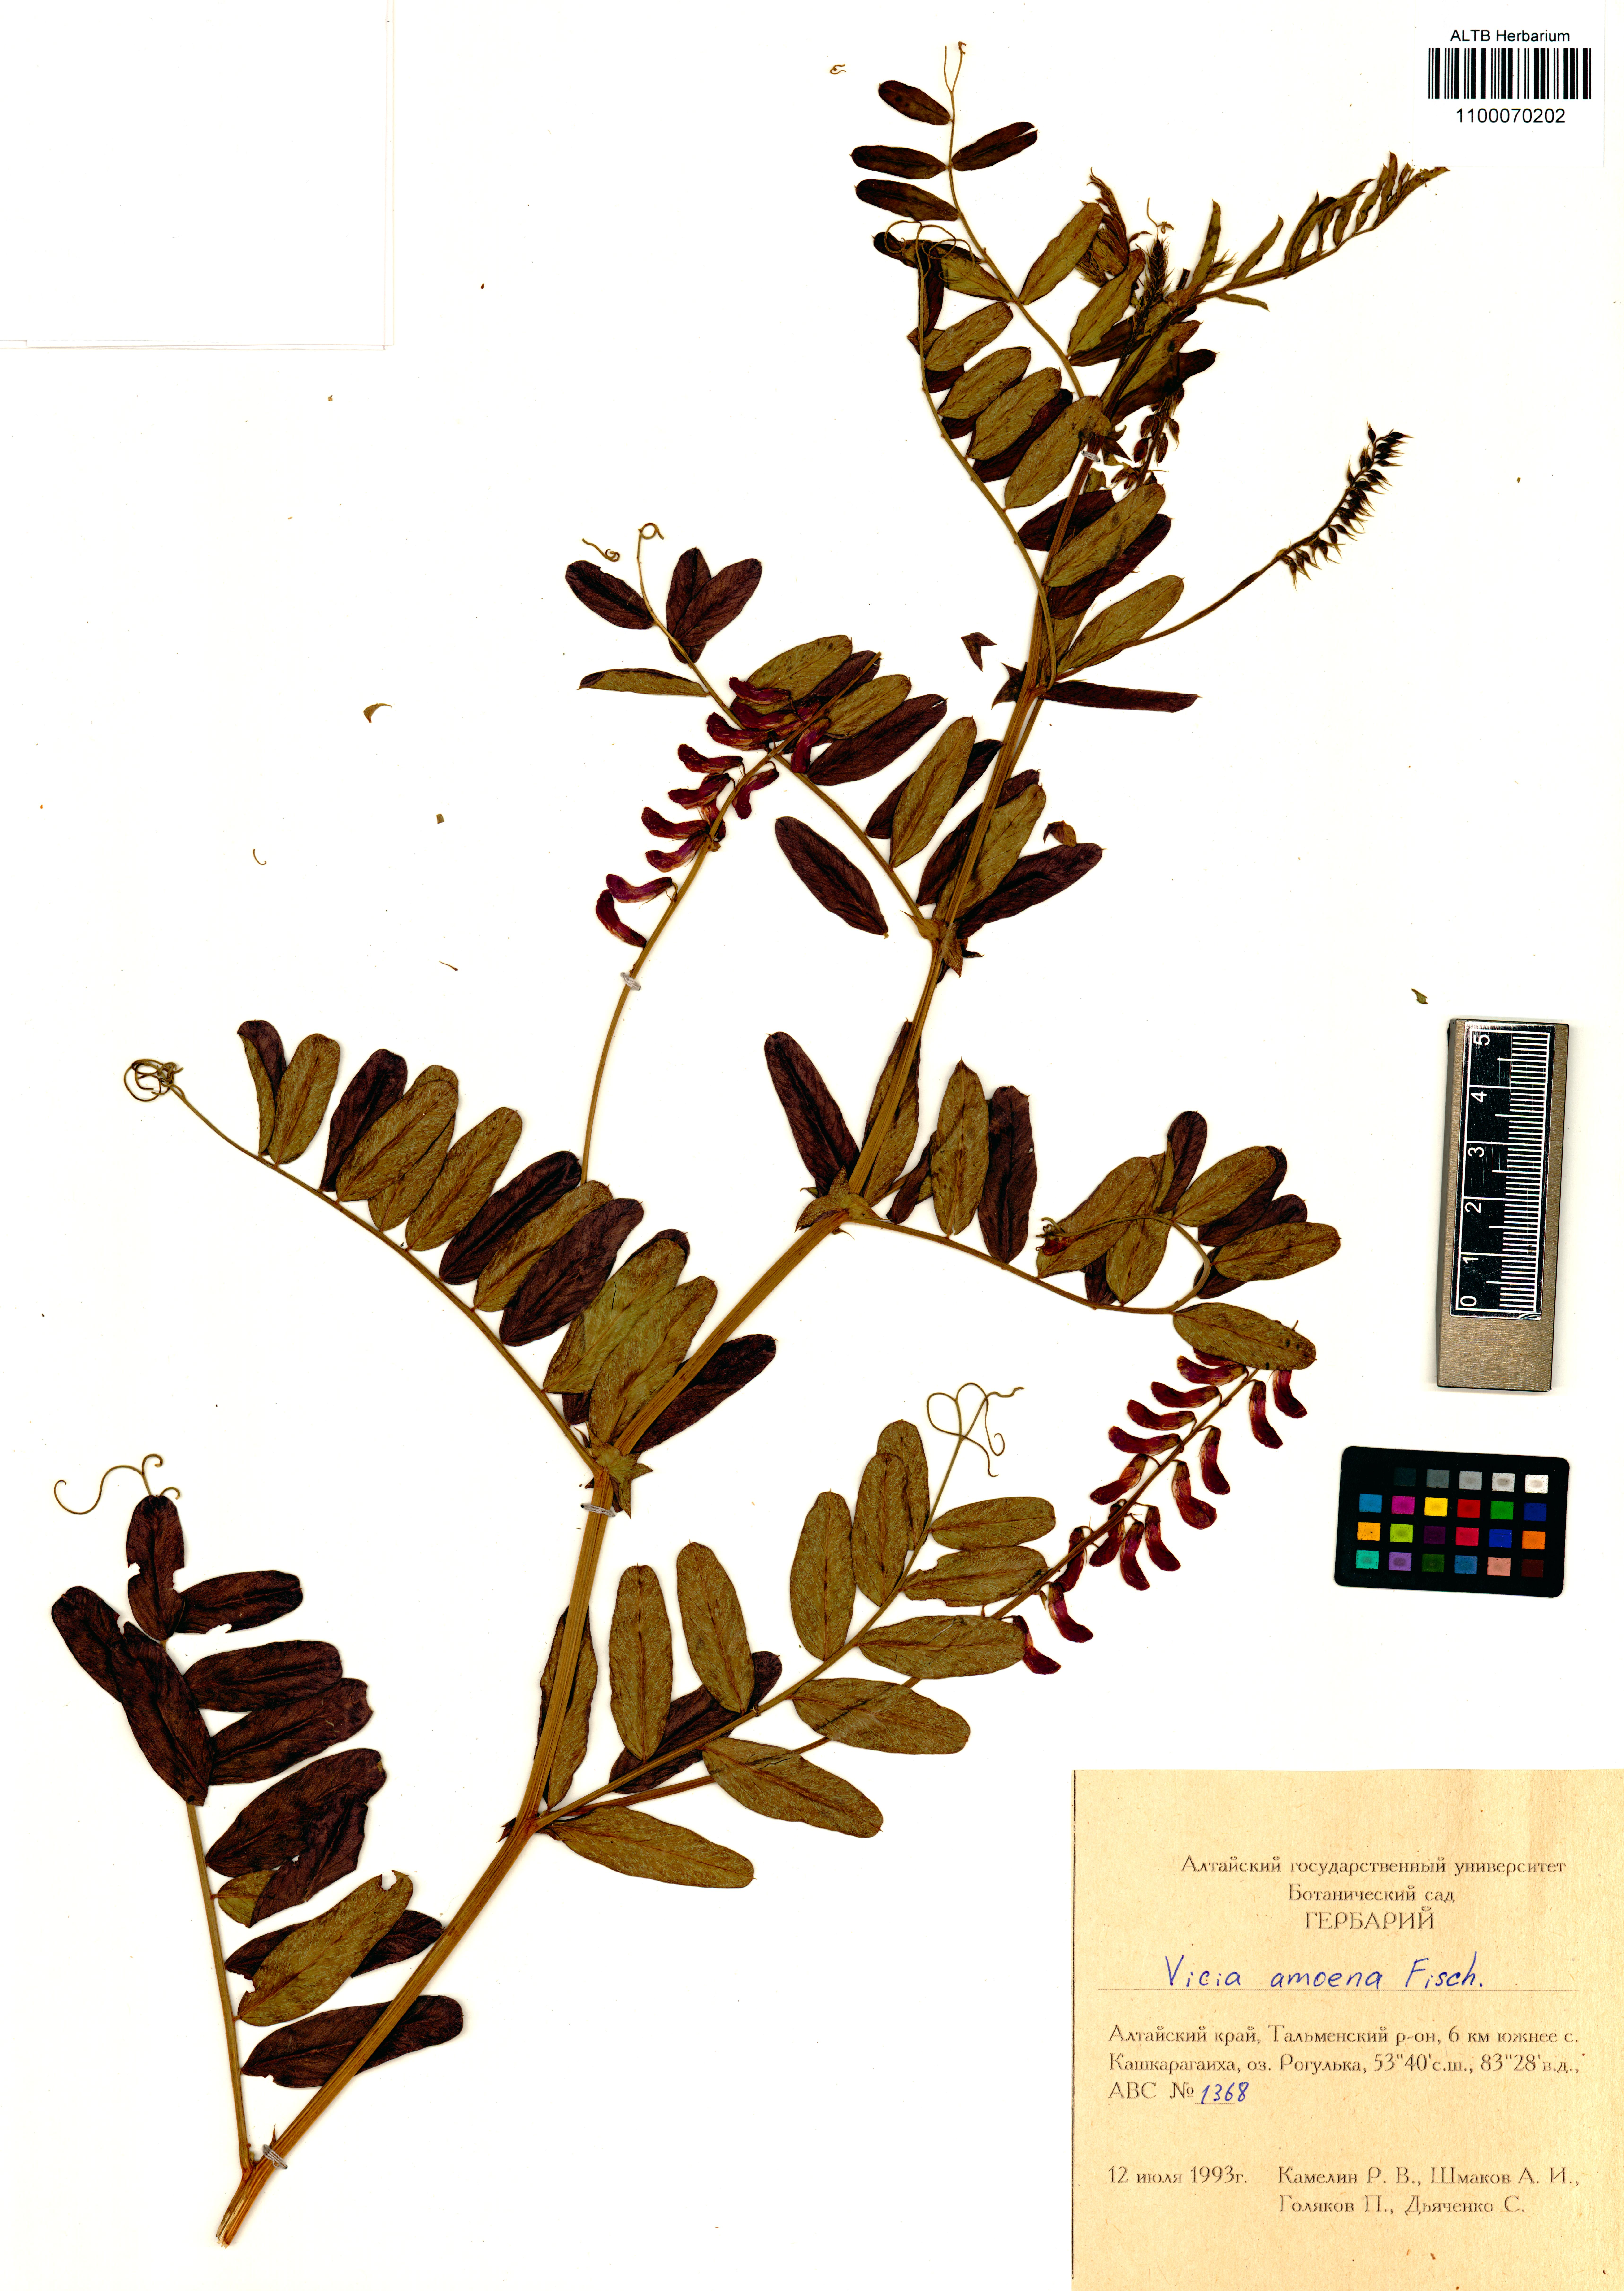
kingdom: Plantae
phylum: Tracheophyta
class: Magnoliopsida
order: Fabales
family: Fabaceae
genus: Vicia
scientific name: Vicia amoena
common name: Cheder ebs
